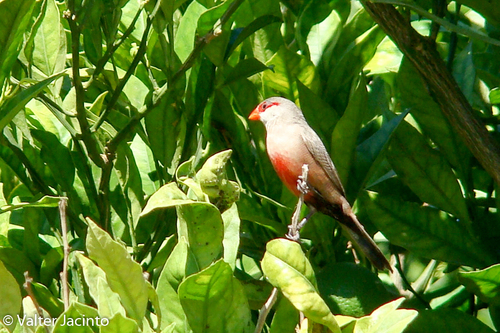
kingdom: Animalia
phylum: Chordata
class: Aves
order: Passeriformes
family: Estrildidae
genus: Estrilda
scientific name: Estrilda astrild
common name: Common waxbill
